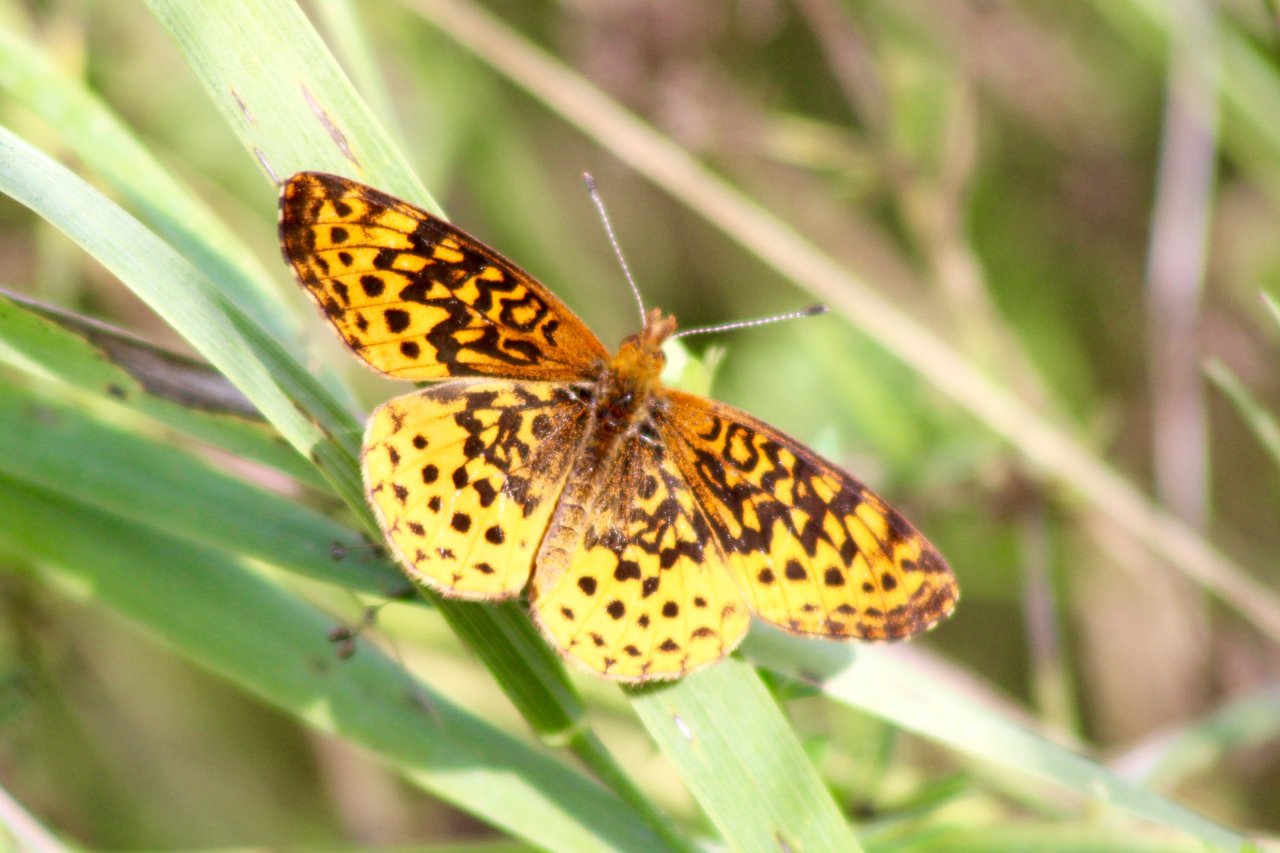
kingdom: Animalia
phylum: Arthropoda
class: Insecta
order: Lepidoptera
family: Nymphalidae
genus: Clossiana
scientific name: Clossiana toddi
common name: Meadow Fritillary
